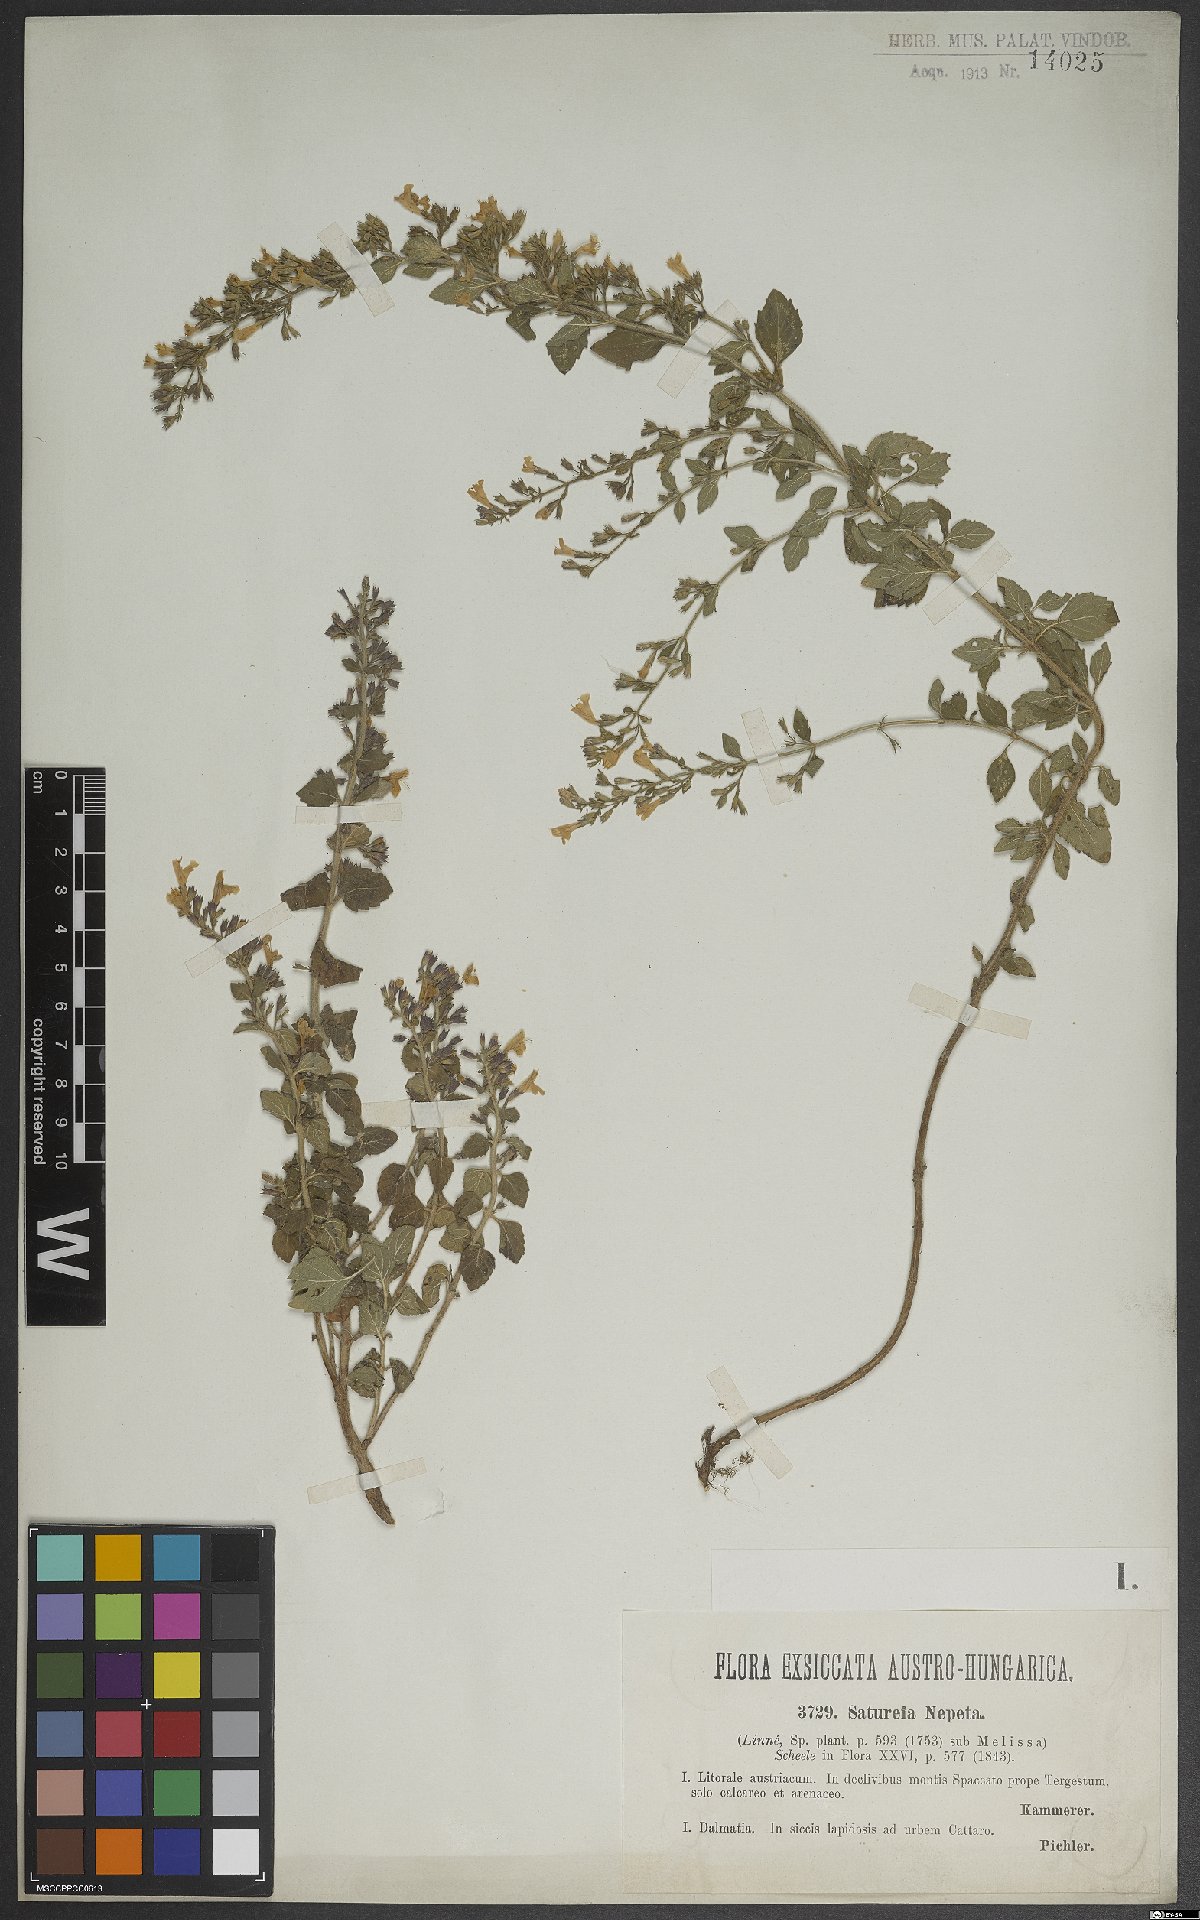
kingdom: Plantae
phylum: Tracheophyta
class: Magnoliopsida
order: Lamiales
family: Lamiaceae
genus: Clinopodium
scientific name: Clinopodium nepeta
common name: Lesser calamint
